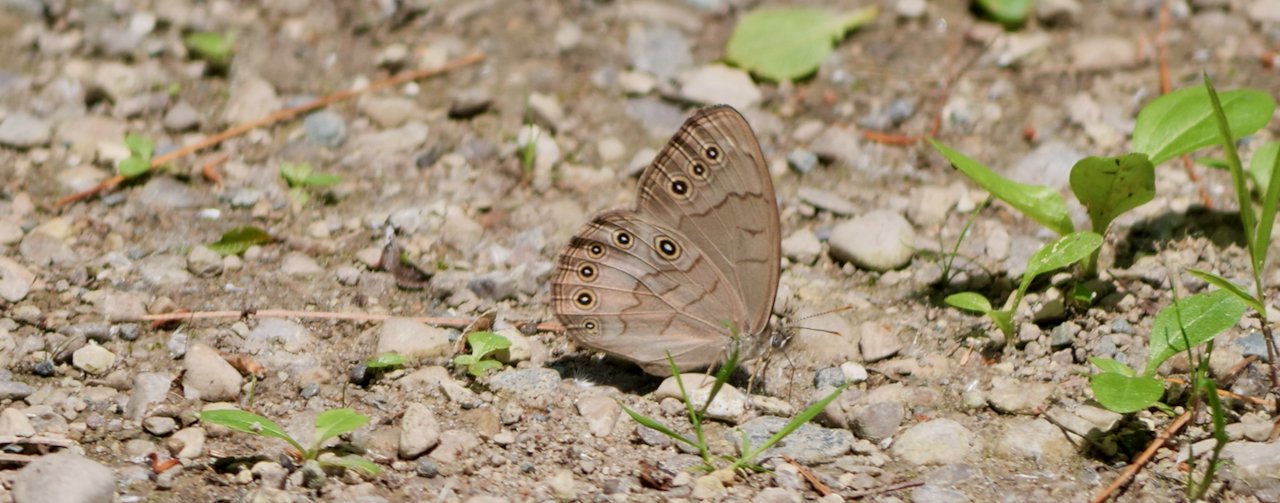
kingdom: Animalia
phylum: Arthropoda
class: Insecta
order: Lepidoptera
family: Nymphalidae
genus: Lethe
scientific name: Lethe eurydice
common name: Eyed Brown
